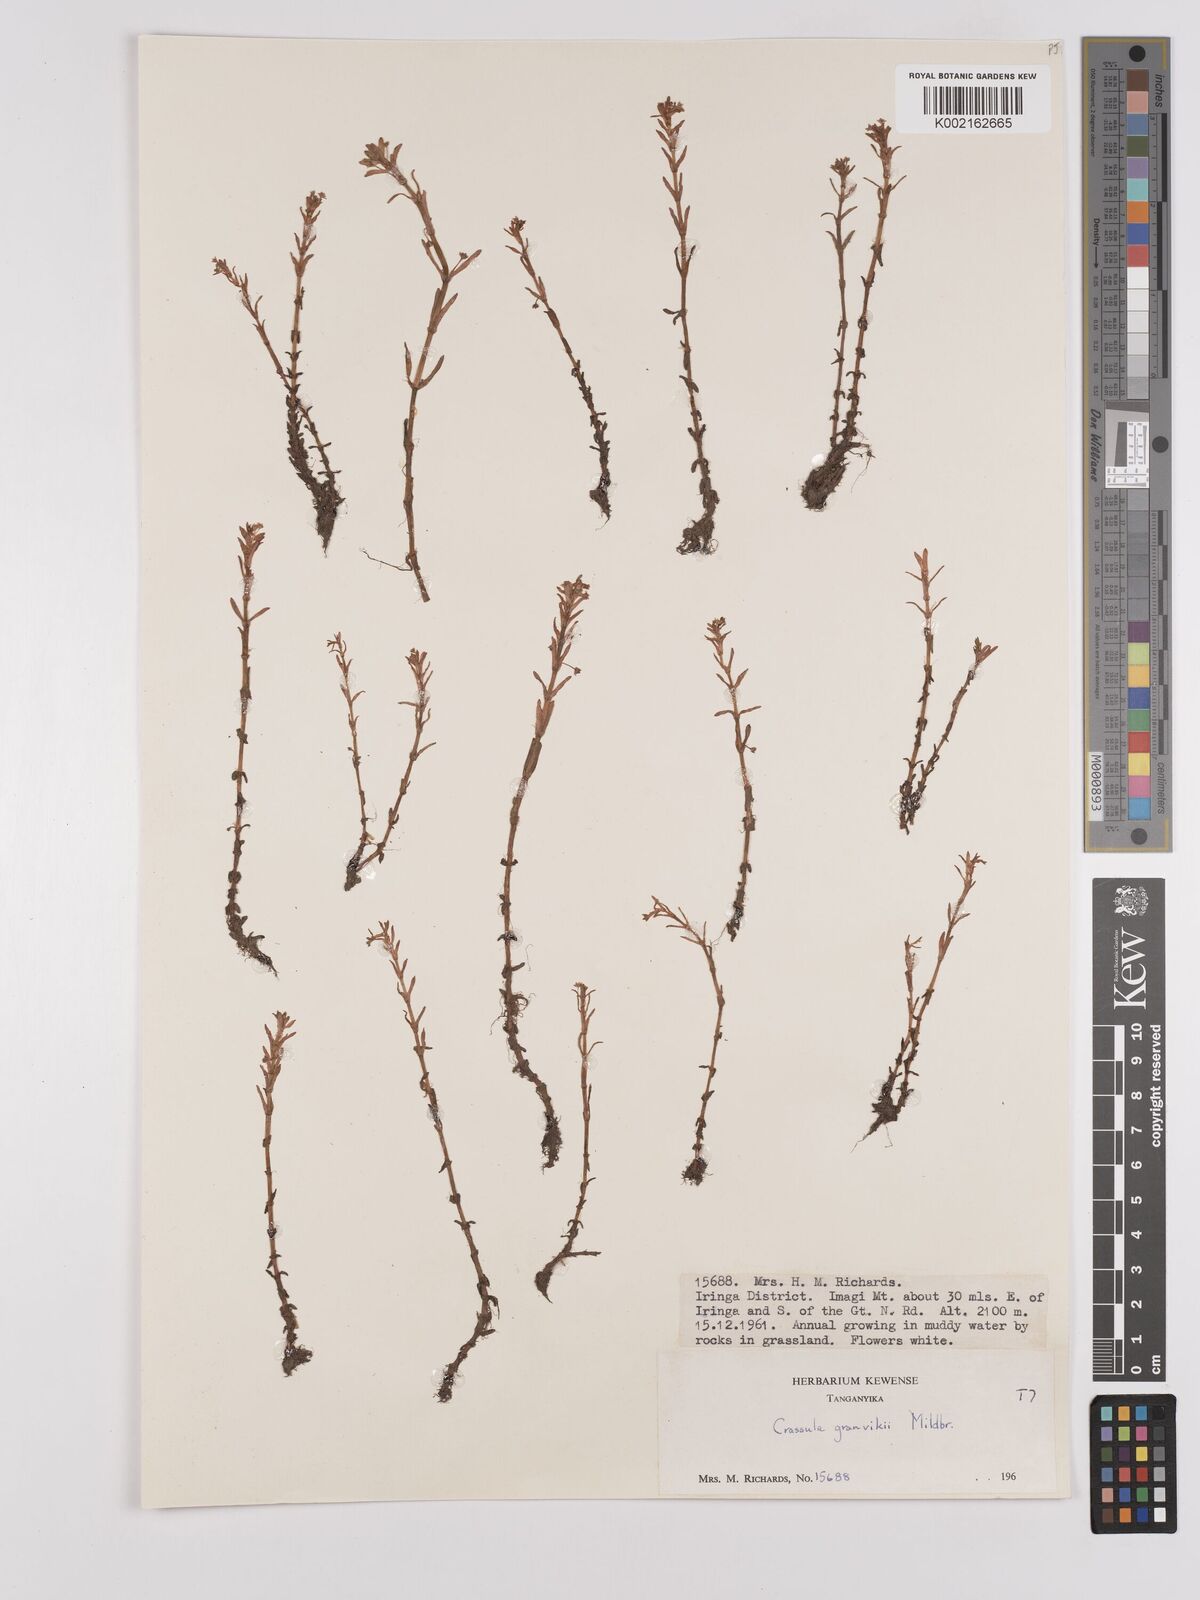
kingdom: Plantae
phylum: Tracheophyta
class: Magnoliopsida
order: Saxifragales
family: Crassulaceae
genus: Crassula
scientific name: Crassula granvikii
